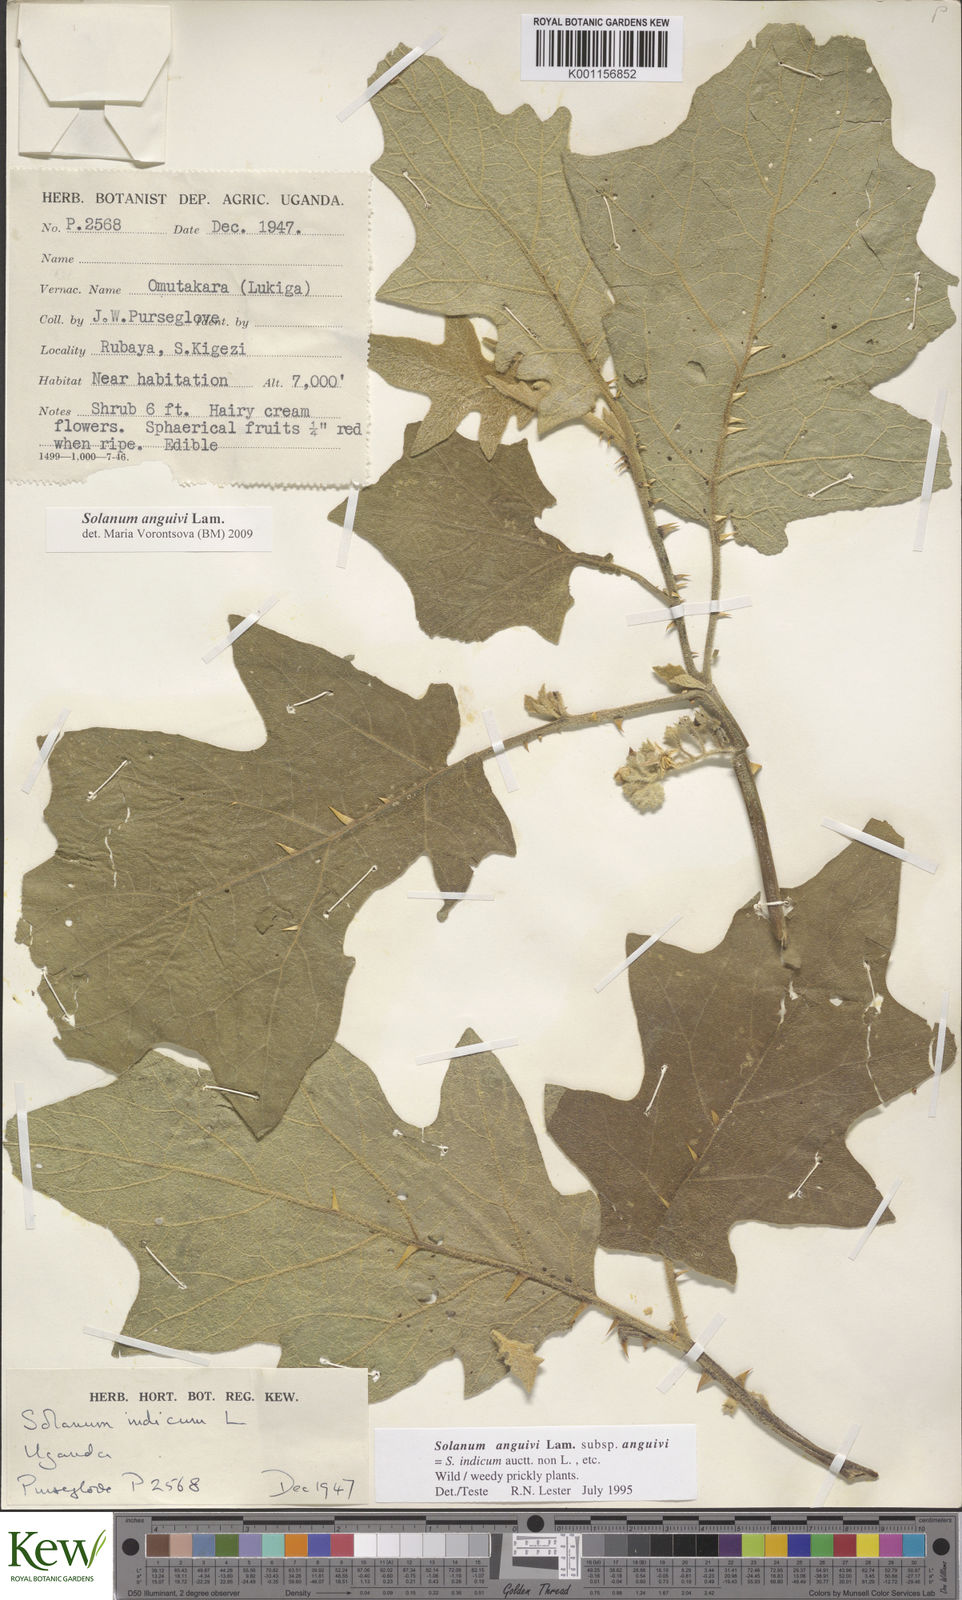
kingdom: Plantae
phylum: Tracheophyta
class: Magnoliopsida
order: Solanales
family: Solanaceae
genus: Solanum
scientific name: Solanum anguivi
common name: Forest bitterberry
